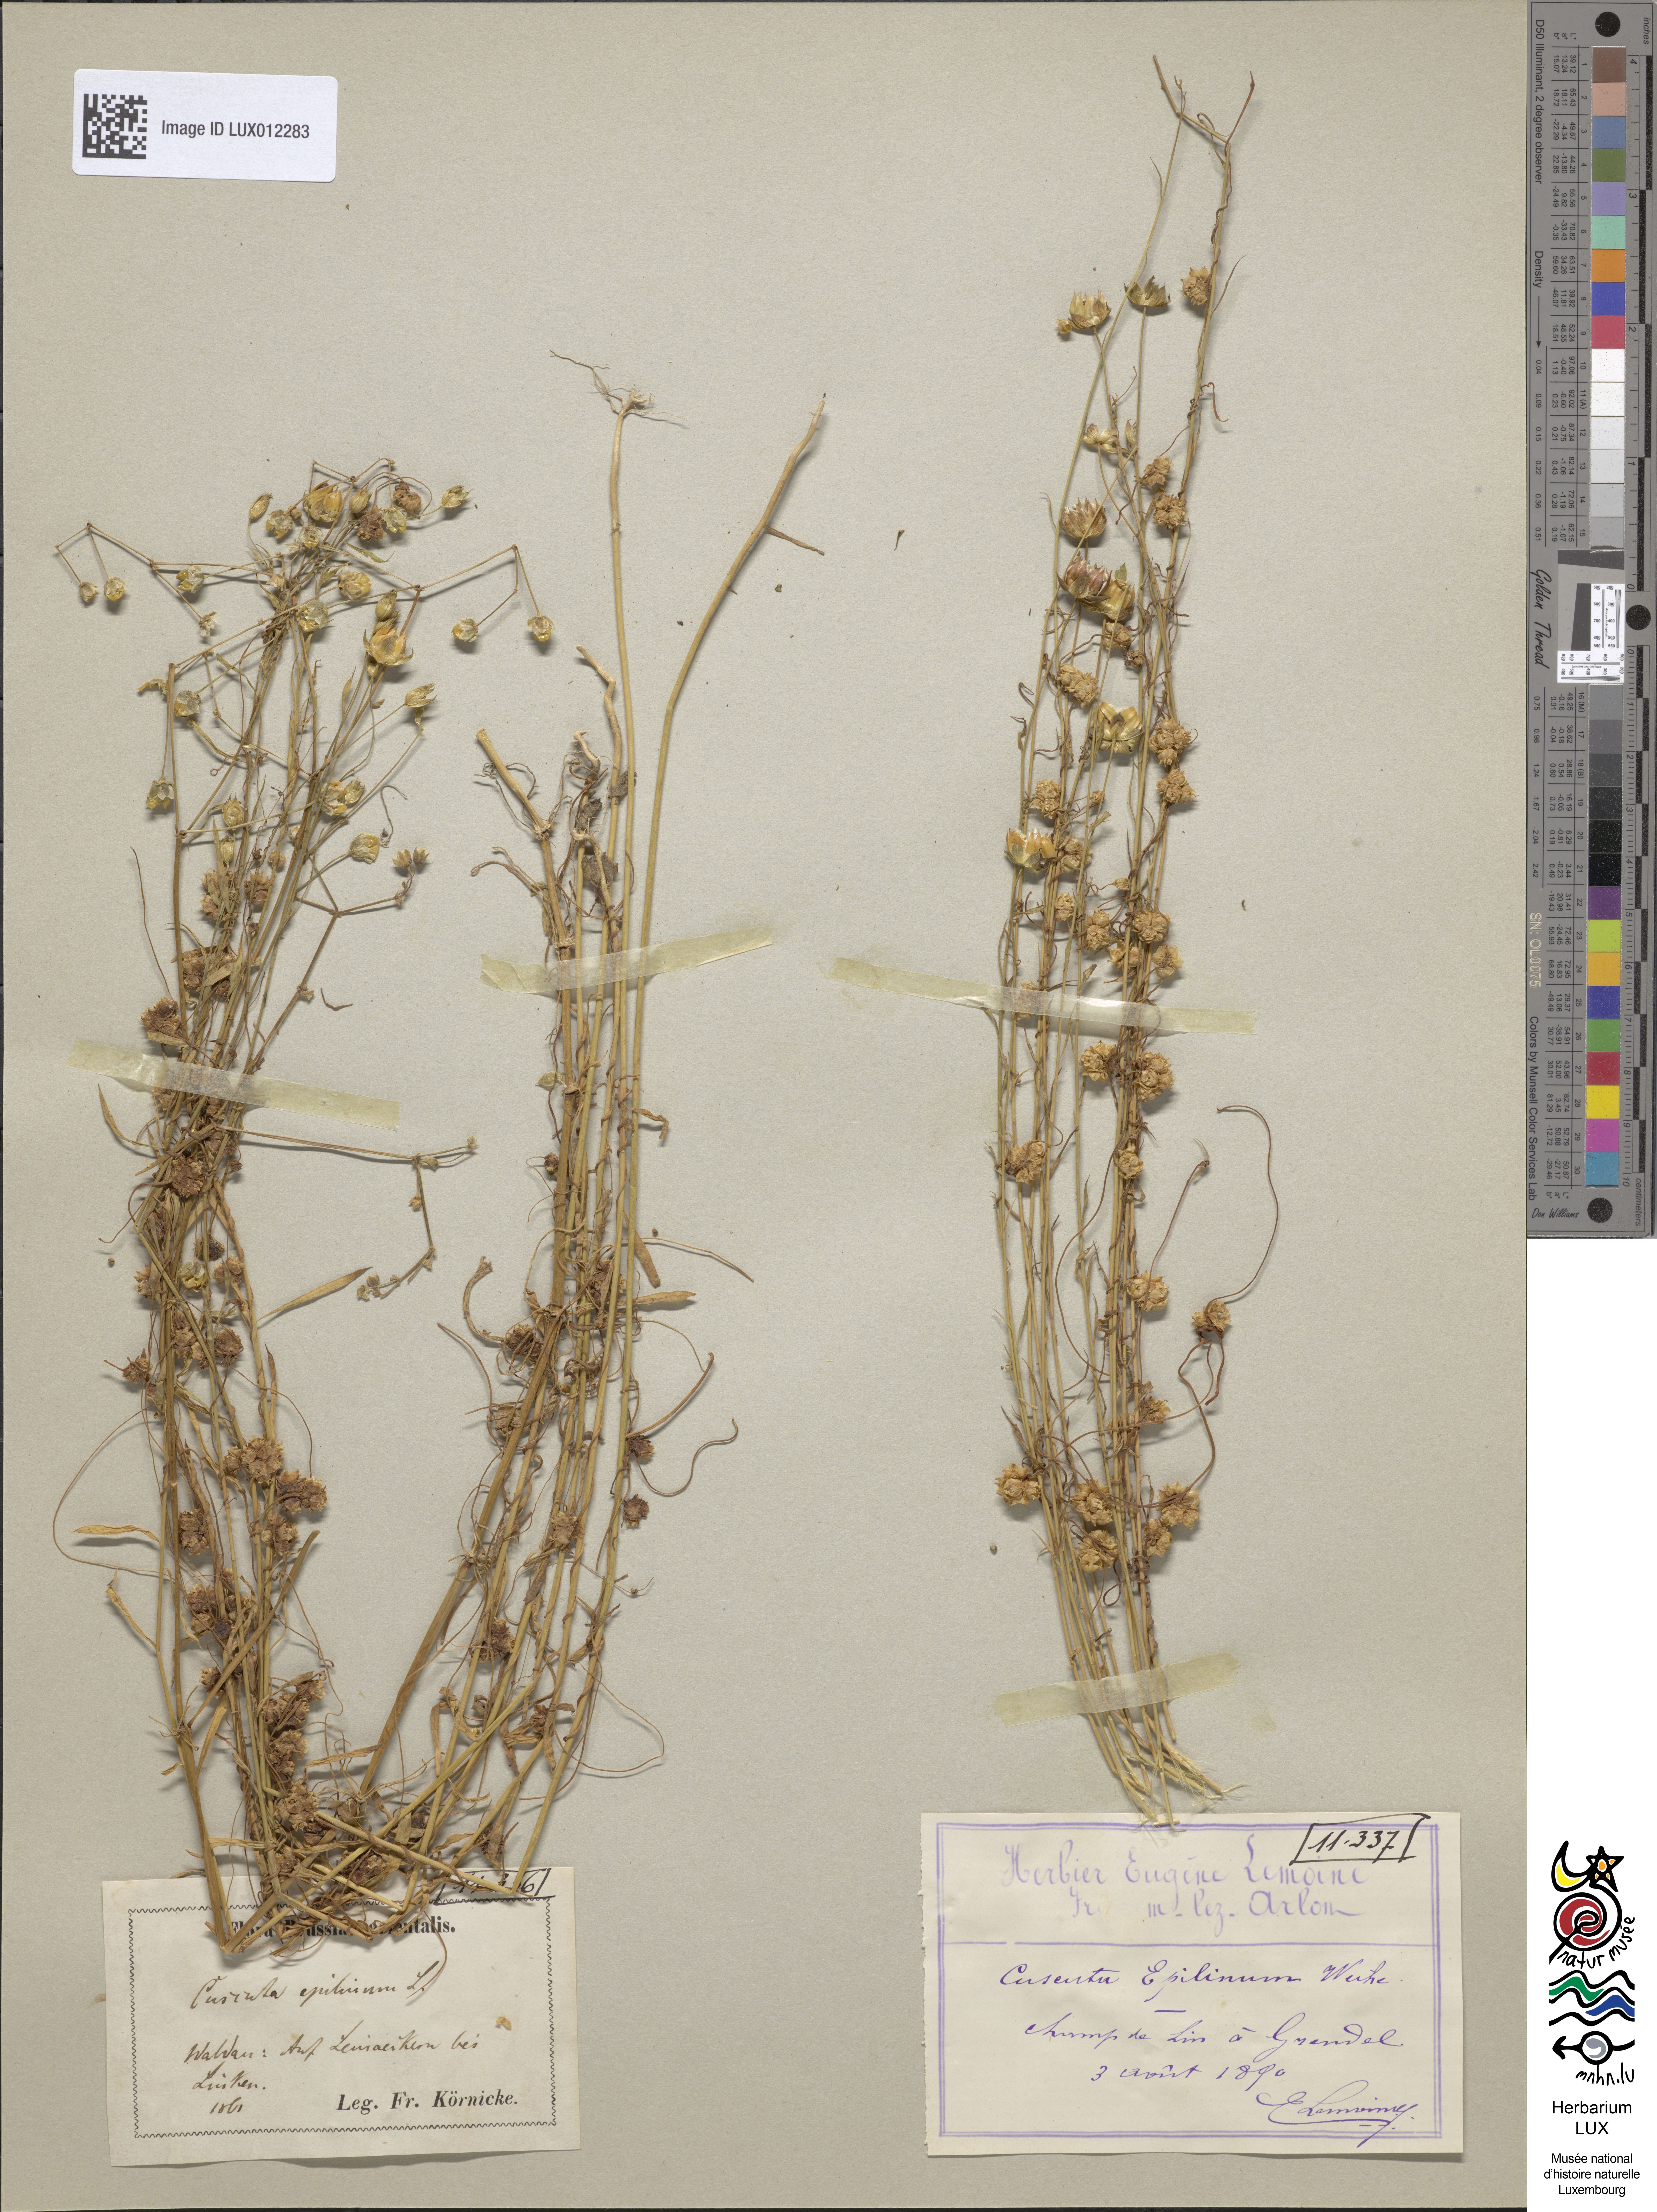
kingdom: Plantae
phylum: Tracheophyta
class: Magnoliopsida
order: Solanales
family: Convolvulaceae
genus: Cuscuta
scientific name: Cuscuta epilinum
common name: Flax dodder
